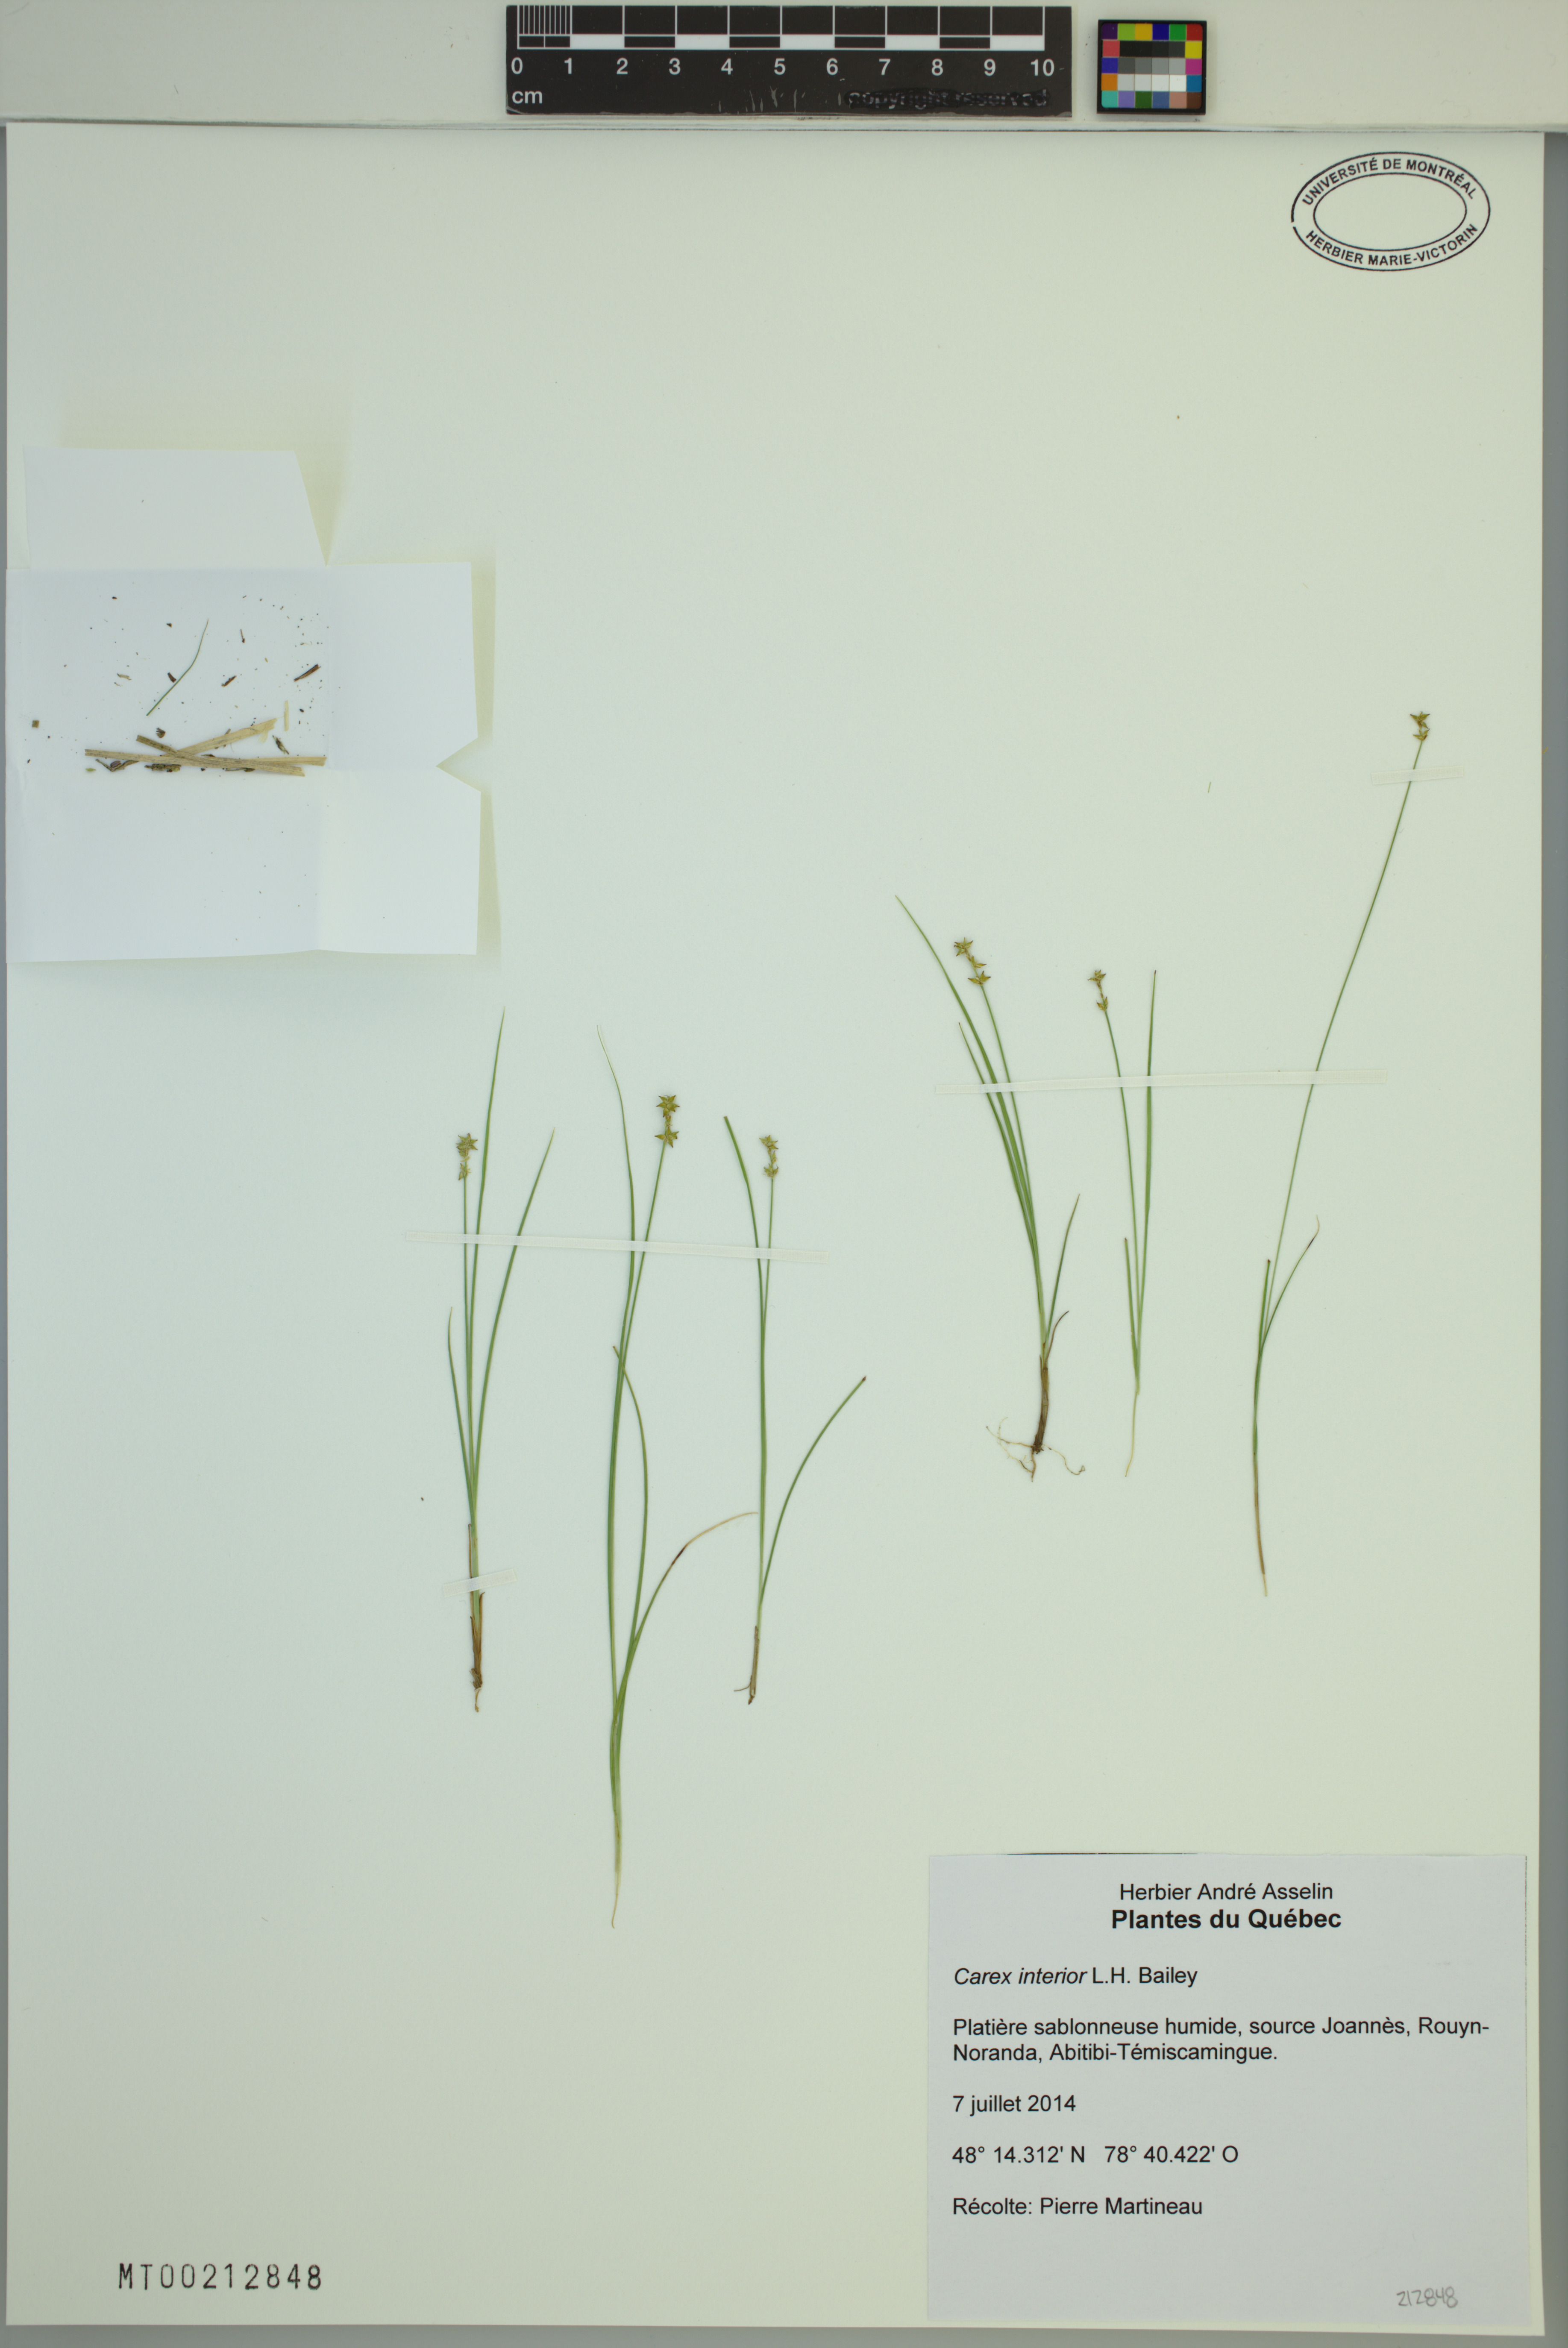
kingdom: Plantae
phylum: Tracheophyta
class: Liliopsida
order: Poales
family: Cyperaceae
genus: Carex
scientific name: Carex interior
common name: Inland sedge
